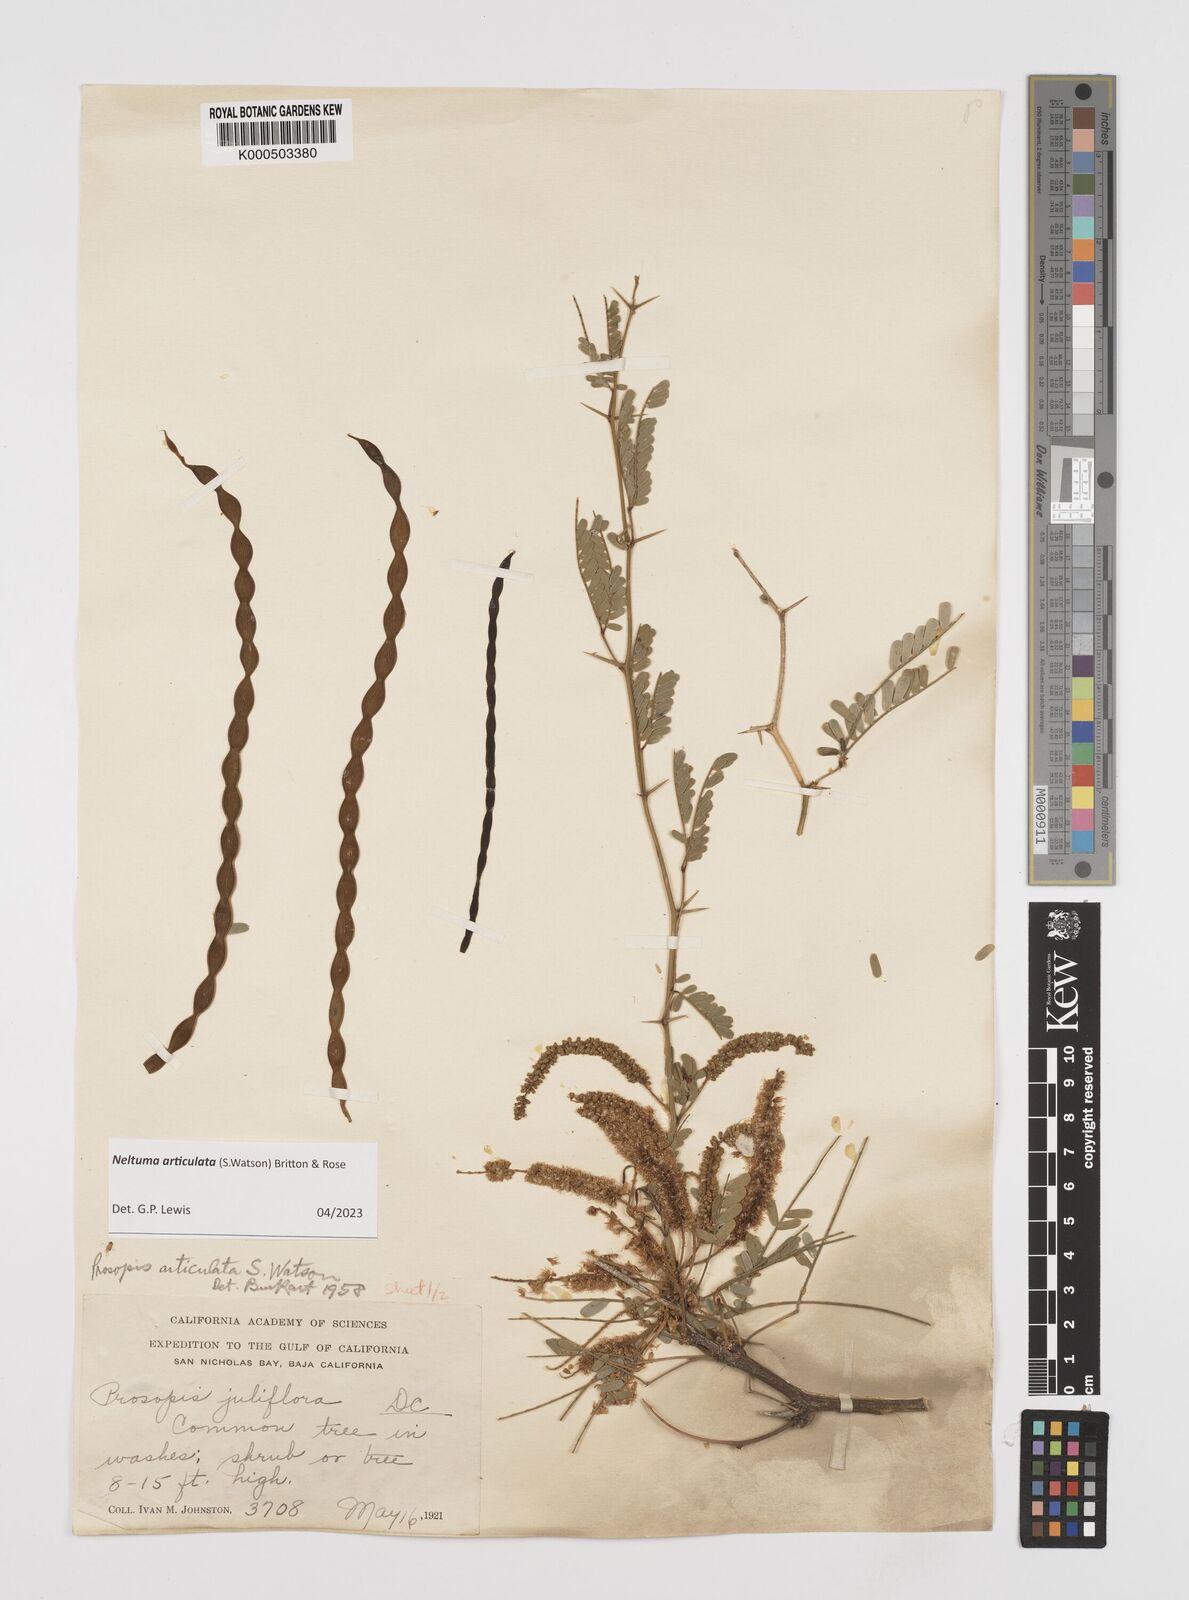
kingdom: Plantae
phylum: Tracheophyta
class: Magnoliopsida
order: Fabales
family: Fabaceae
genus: Prosopis
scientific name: Prosopis articulata
